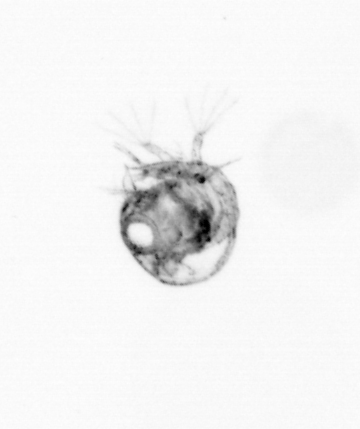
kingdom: Animalia
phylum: Arthropoda
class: Malacostraca
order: Decapoda
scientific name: Decapoda
